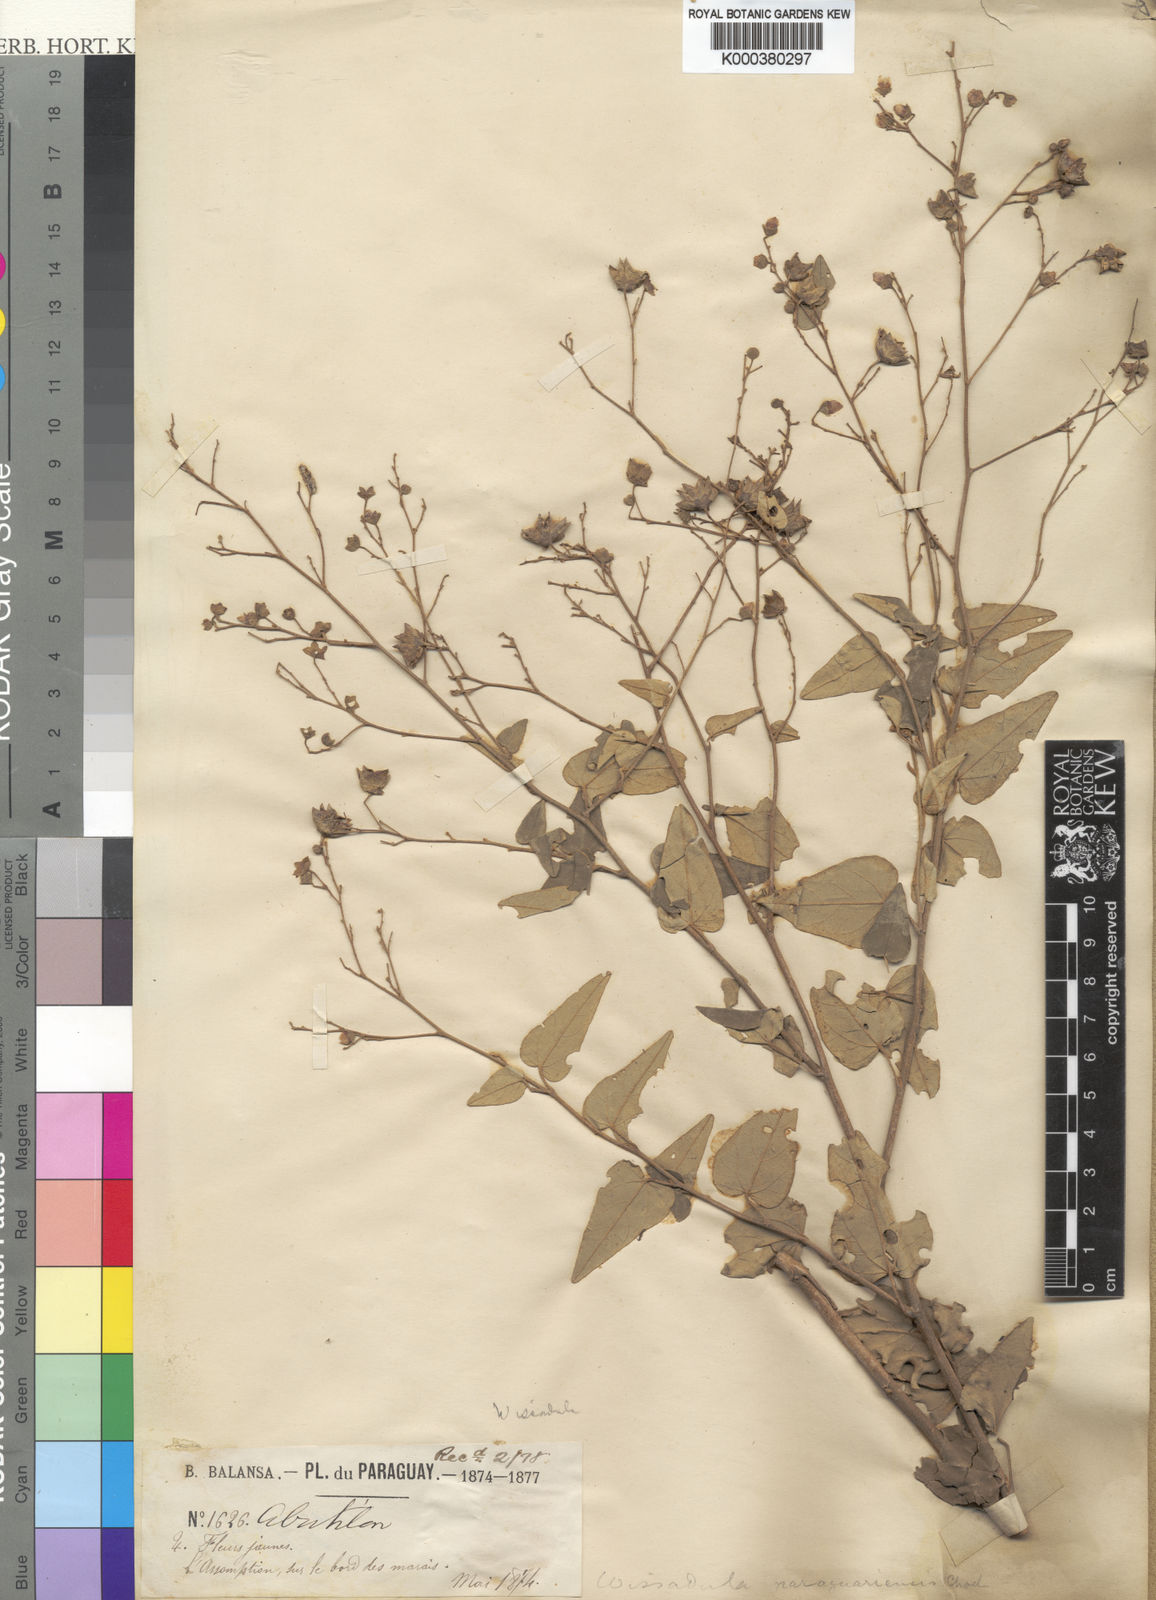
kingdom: Plantae
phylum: Tracheophyta
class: Magnoliopsida
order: Malvales
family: Malvaceae
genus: Wissadula
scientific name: Wissadula paraguariensis
